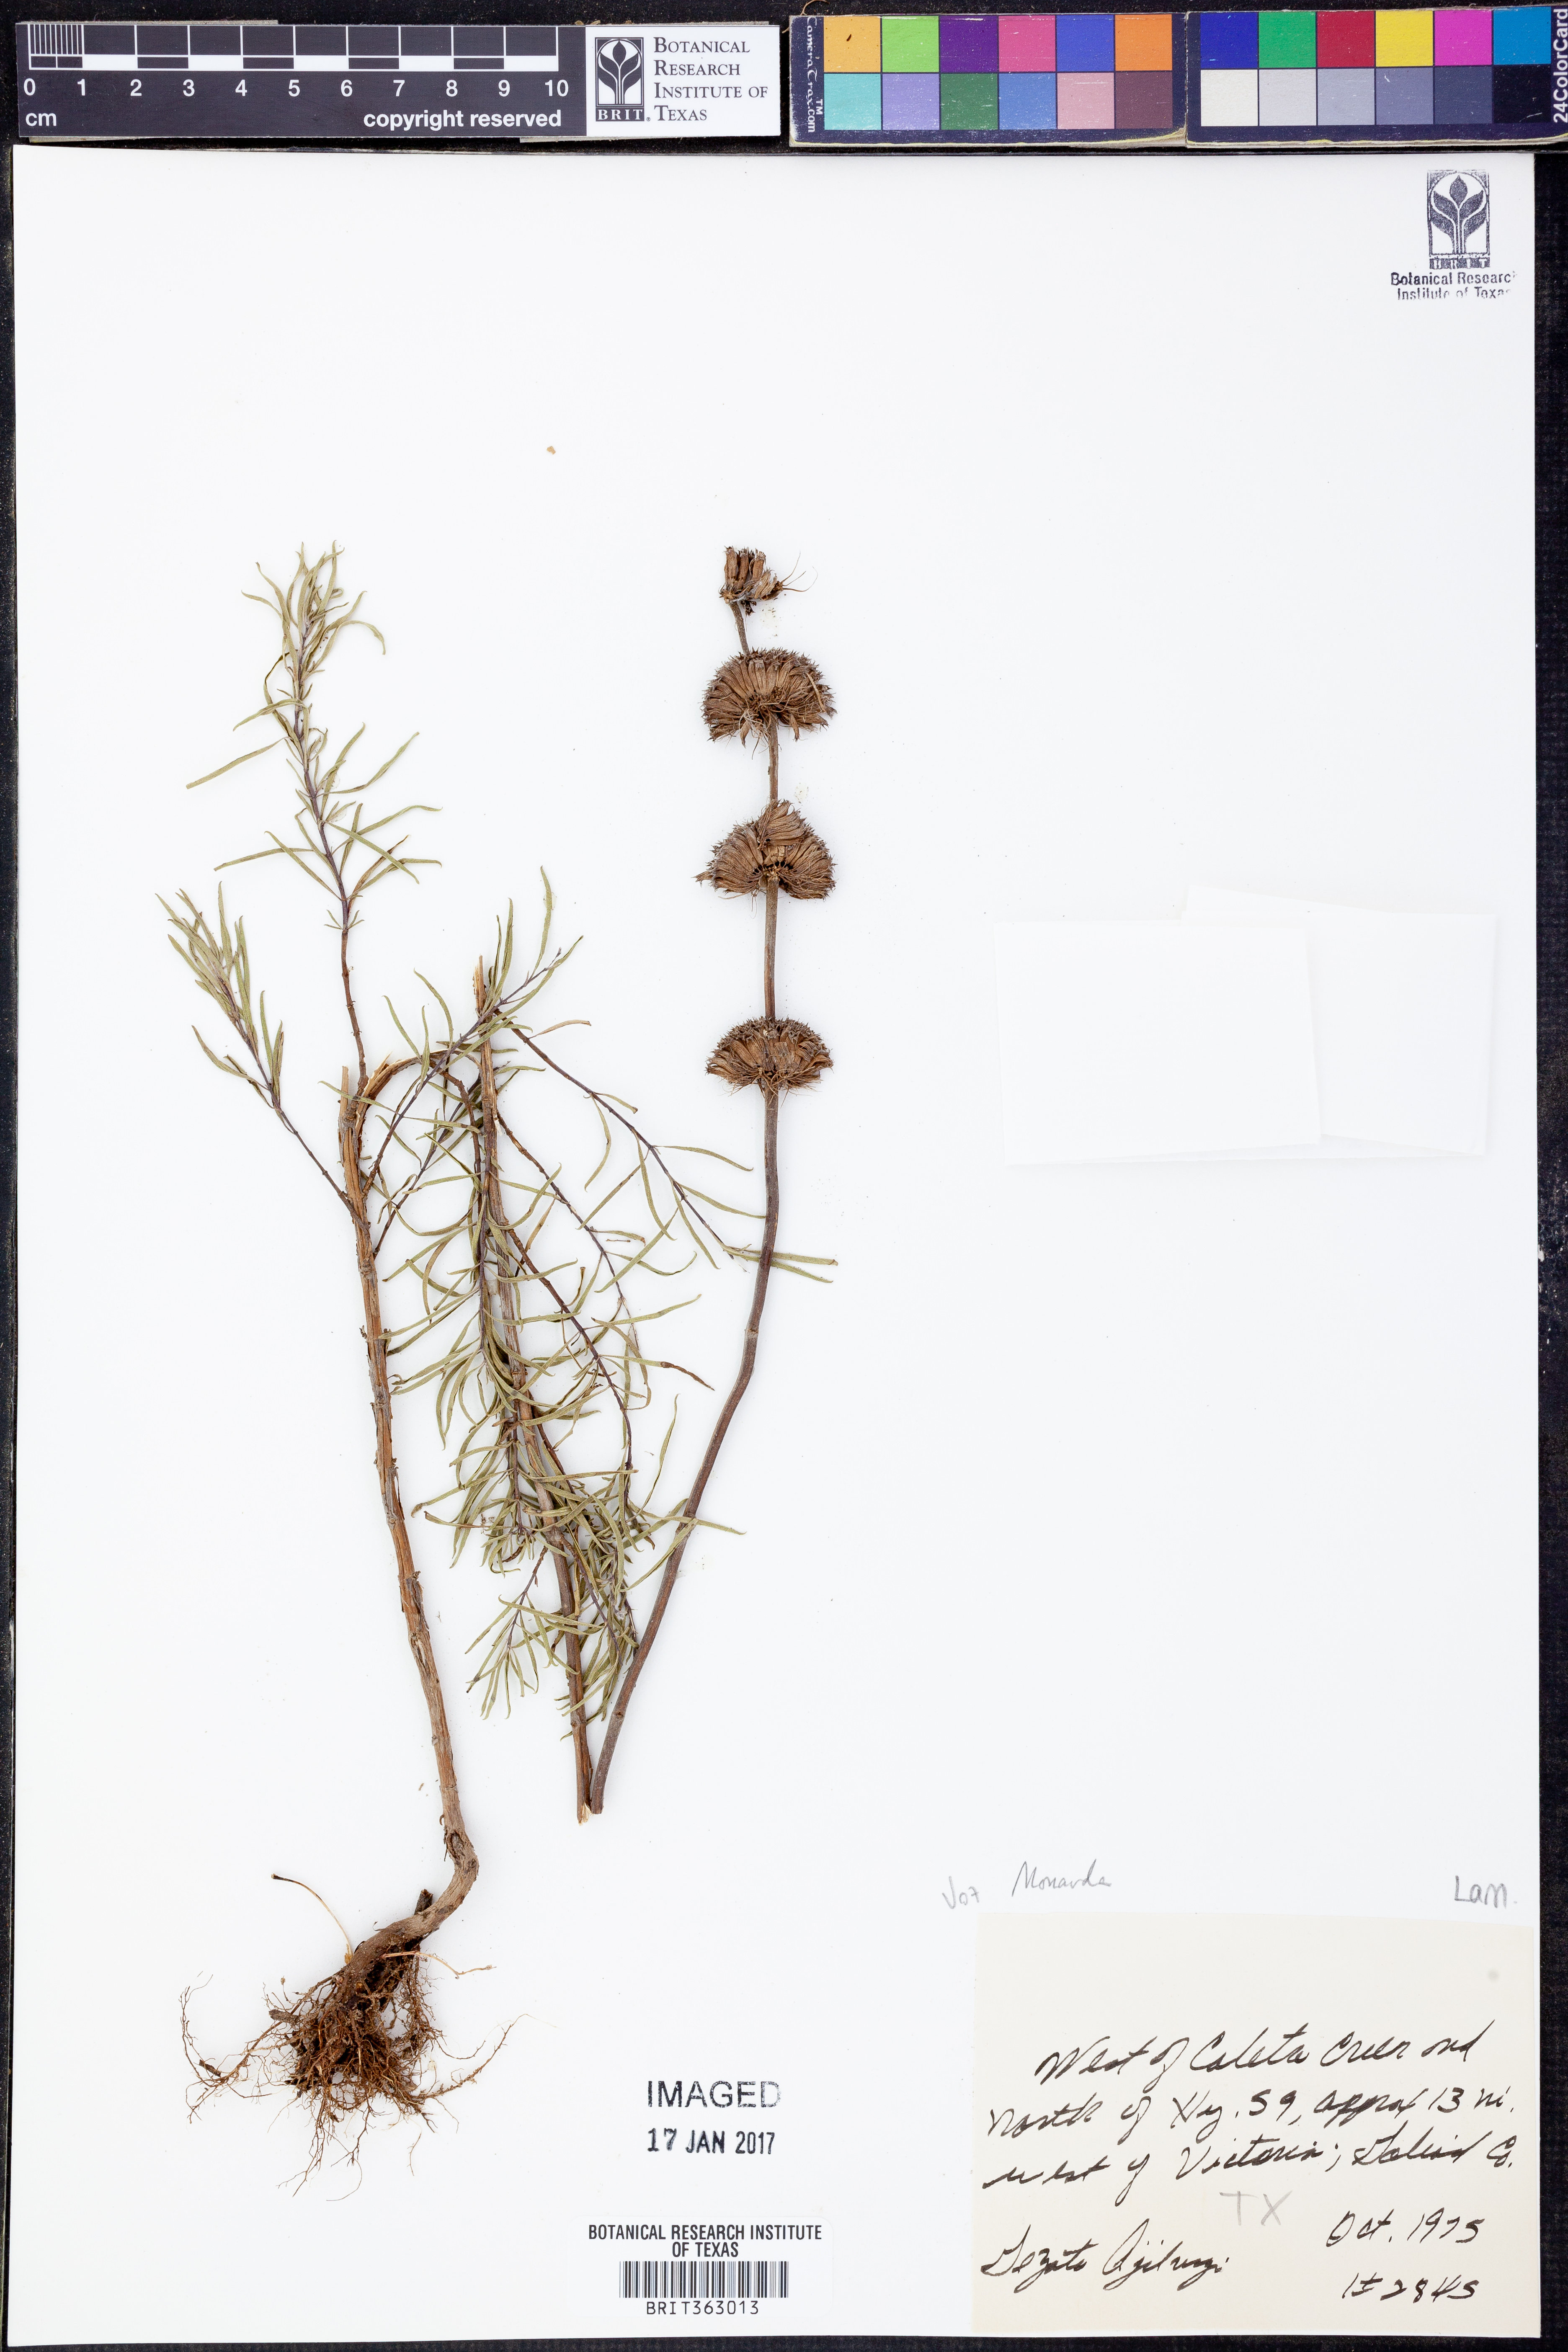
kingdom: Plantae
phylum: Tracheophyta
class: Magnoliopsida
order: Lamiales
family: Lamiaceae
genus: Monarda
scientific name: Monarda
